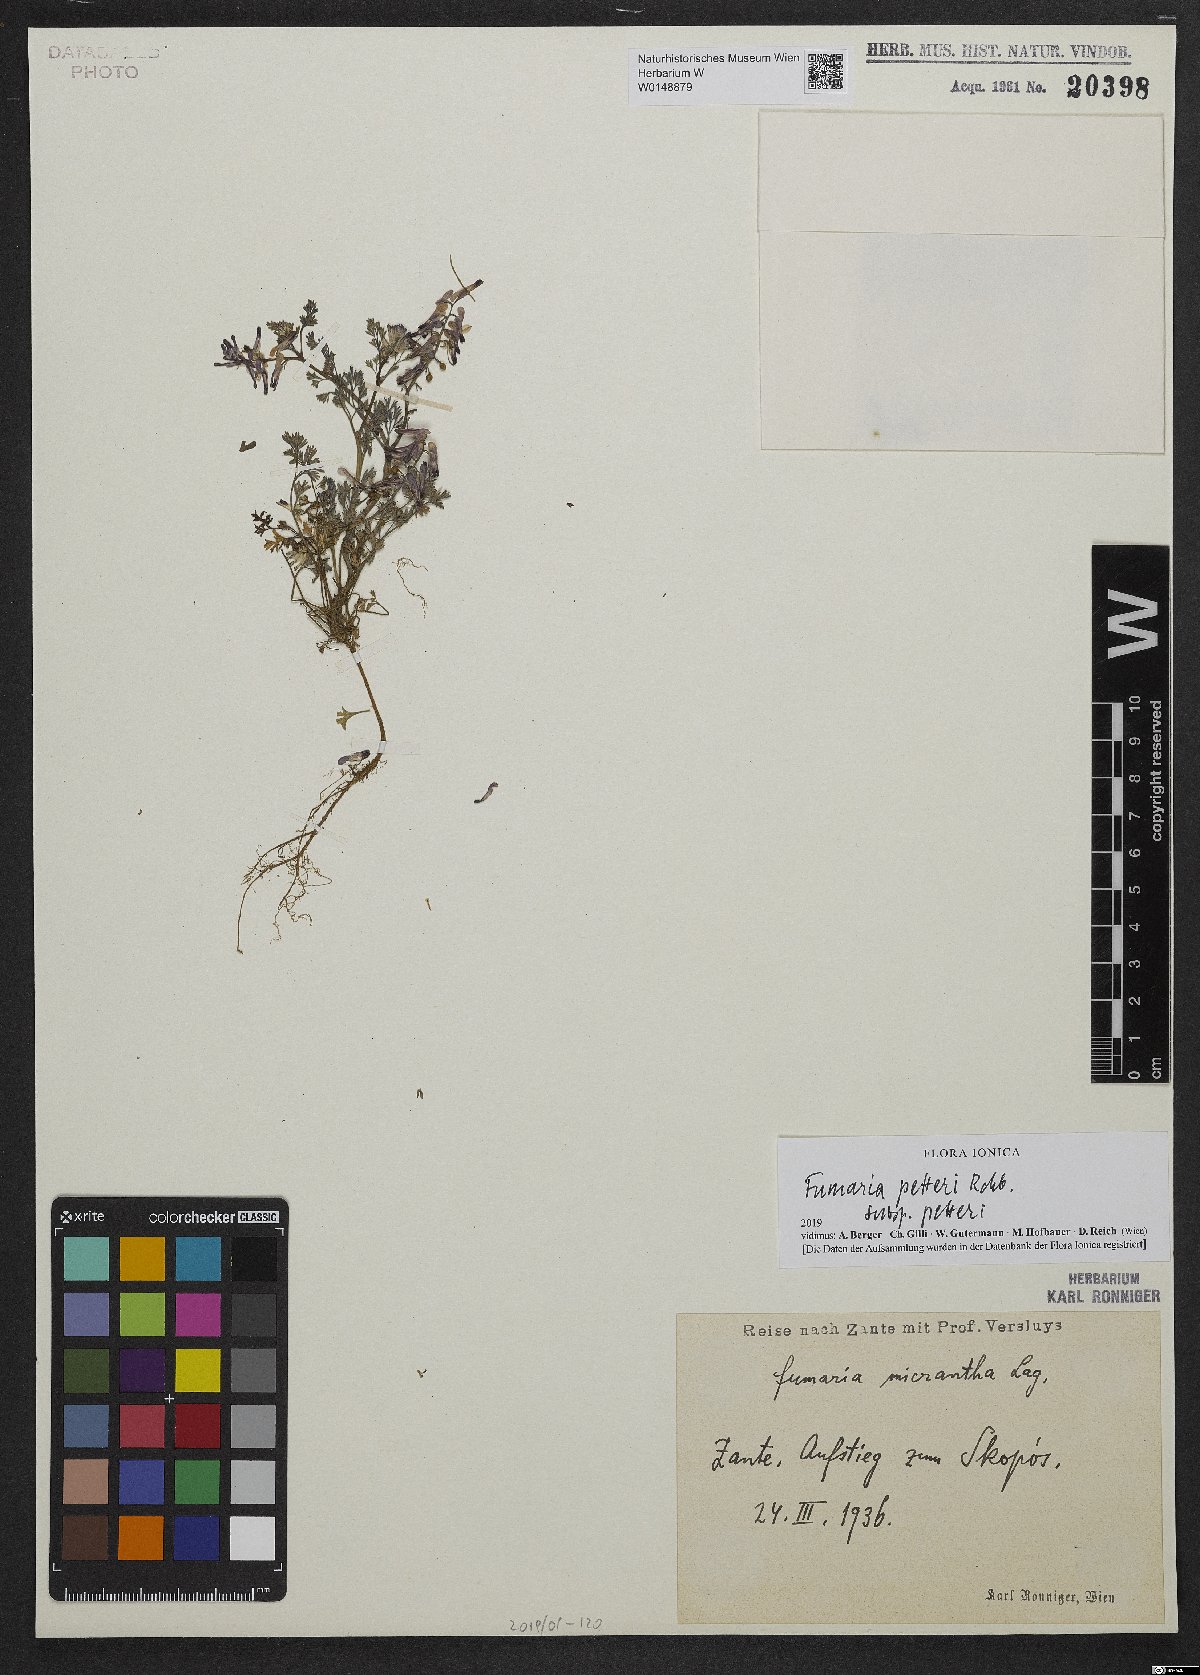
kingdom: Plantae
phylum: Tracheophyta
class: Magnoliopsida
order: Ranunculales
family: Papaveraceae
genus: Fumaria
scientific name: Fumaria petteri
